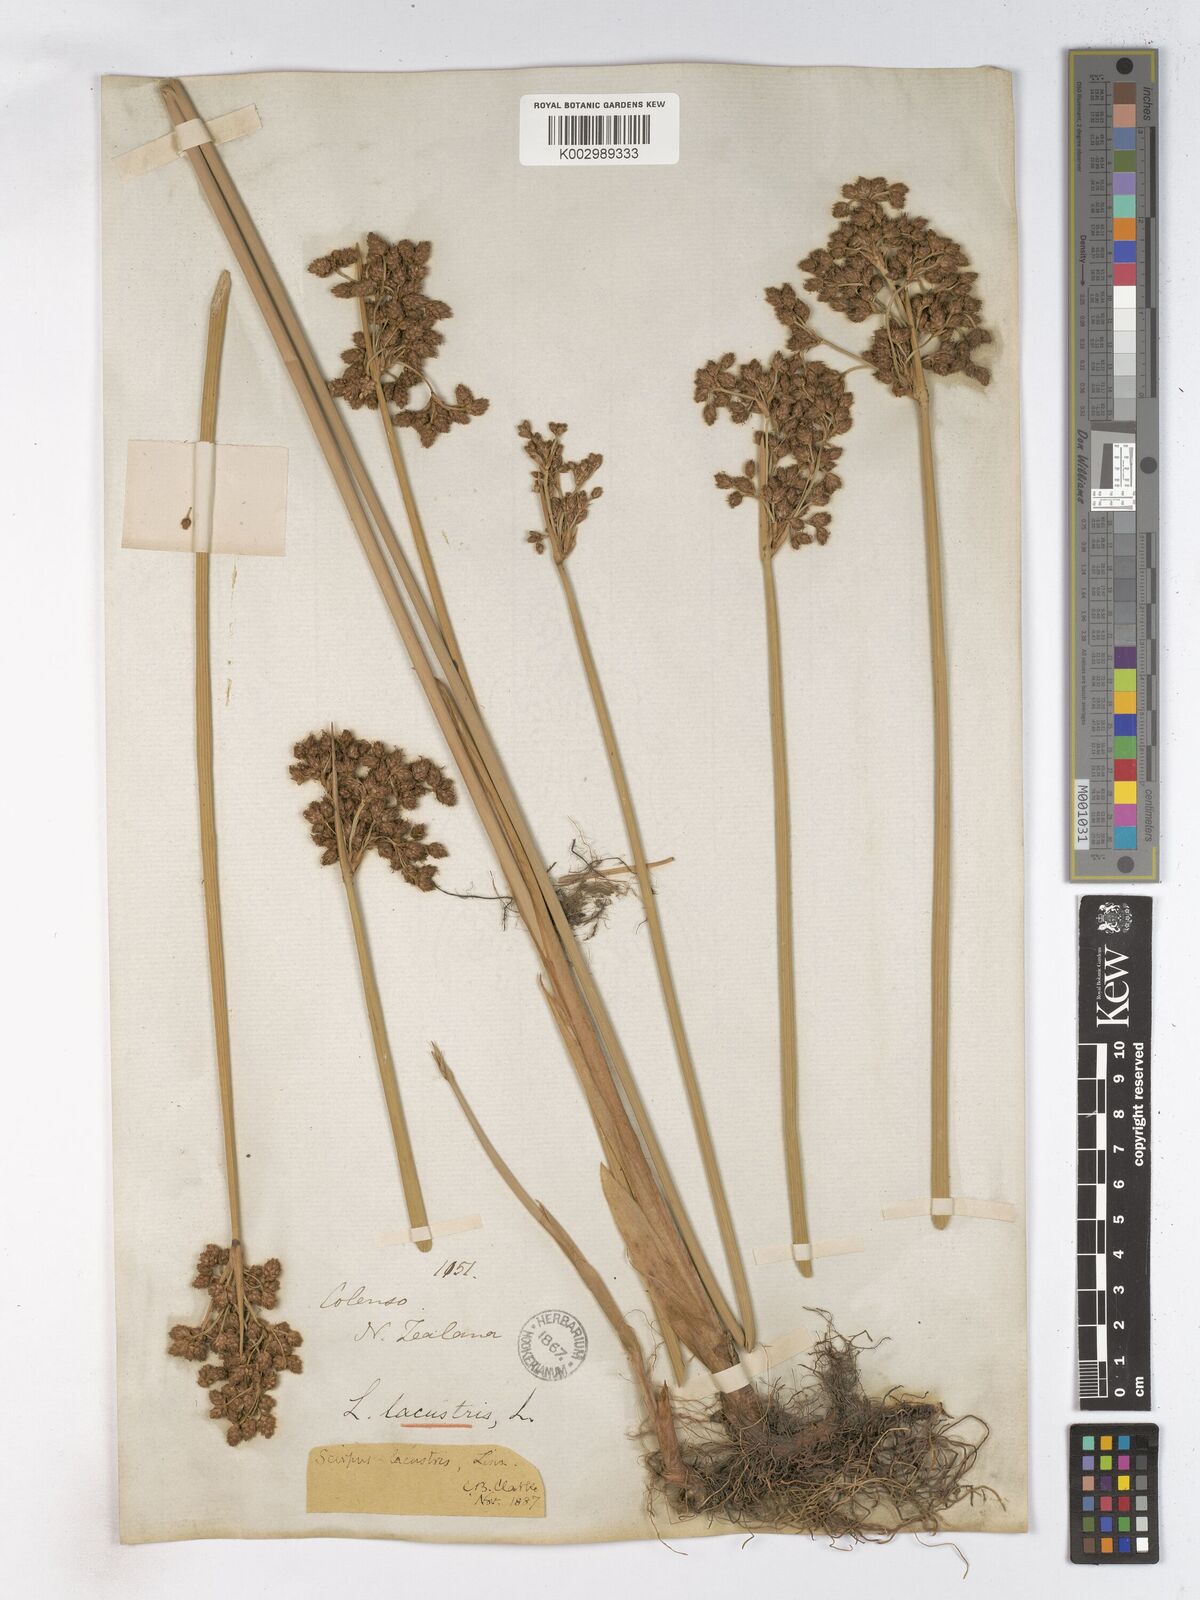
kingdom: Plantae
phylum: Tracheophyta
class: Liliopsida
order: Poales
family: Cyperaceae
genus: Schoenoplectus
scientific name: Schoenoplectus lacustris
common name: Common club-rush
